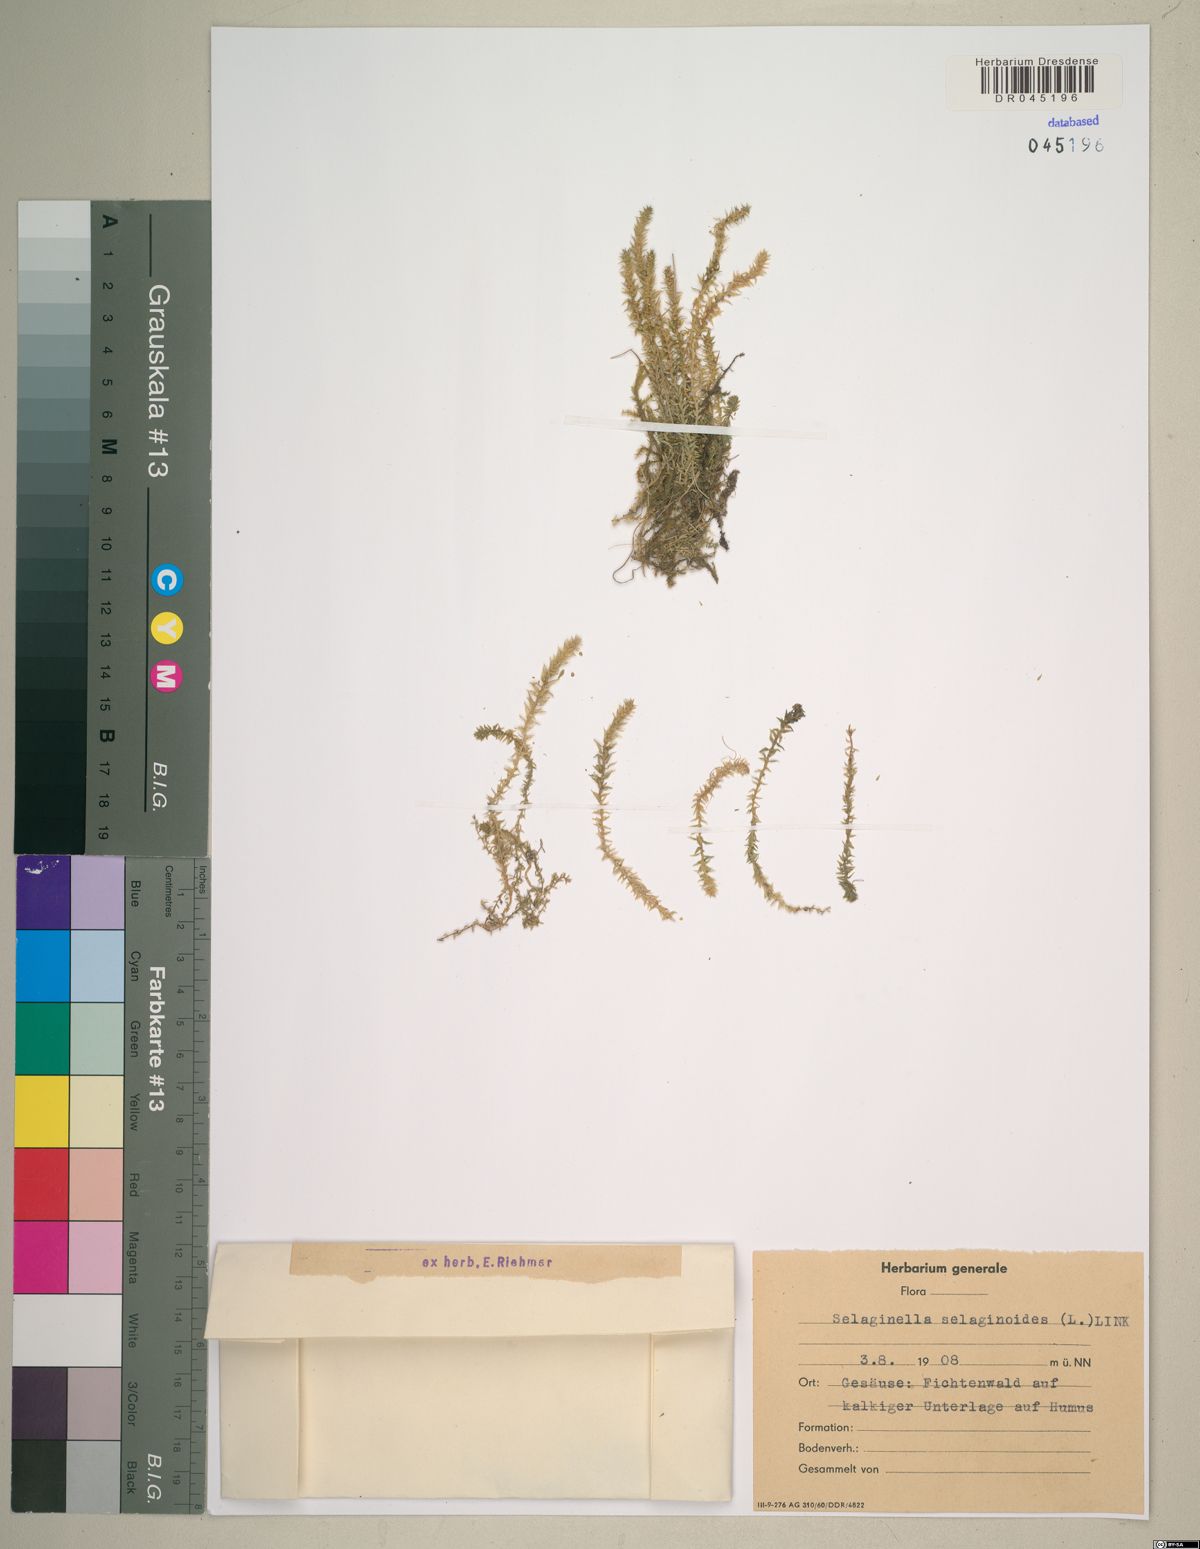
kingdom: Plantae
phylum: Tracheophyta
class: Lycopodiopsida
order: Selaginellales
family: Selaginellaceae
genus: Selaginella
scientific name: Selaginella selaginoides
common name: Prickly mountain-moss
